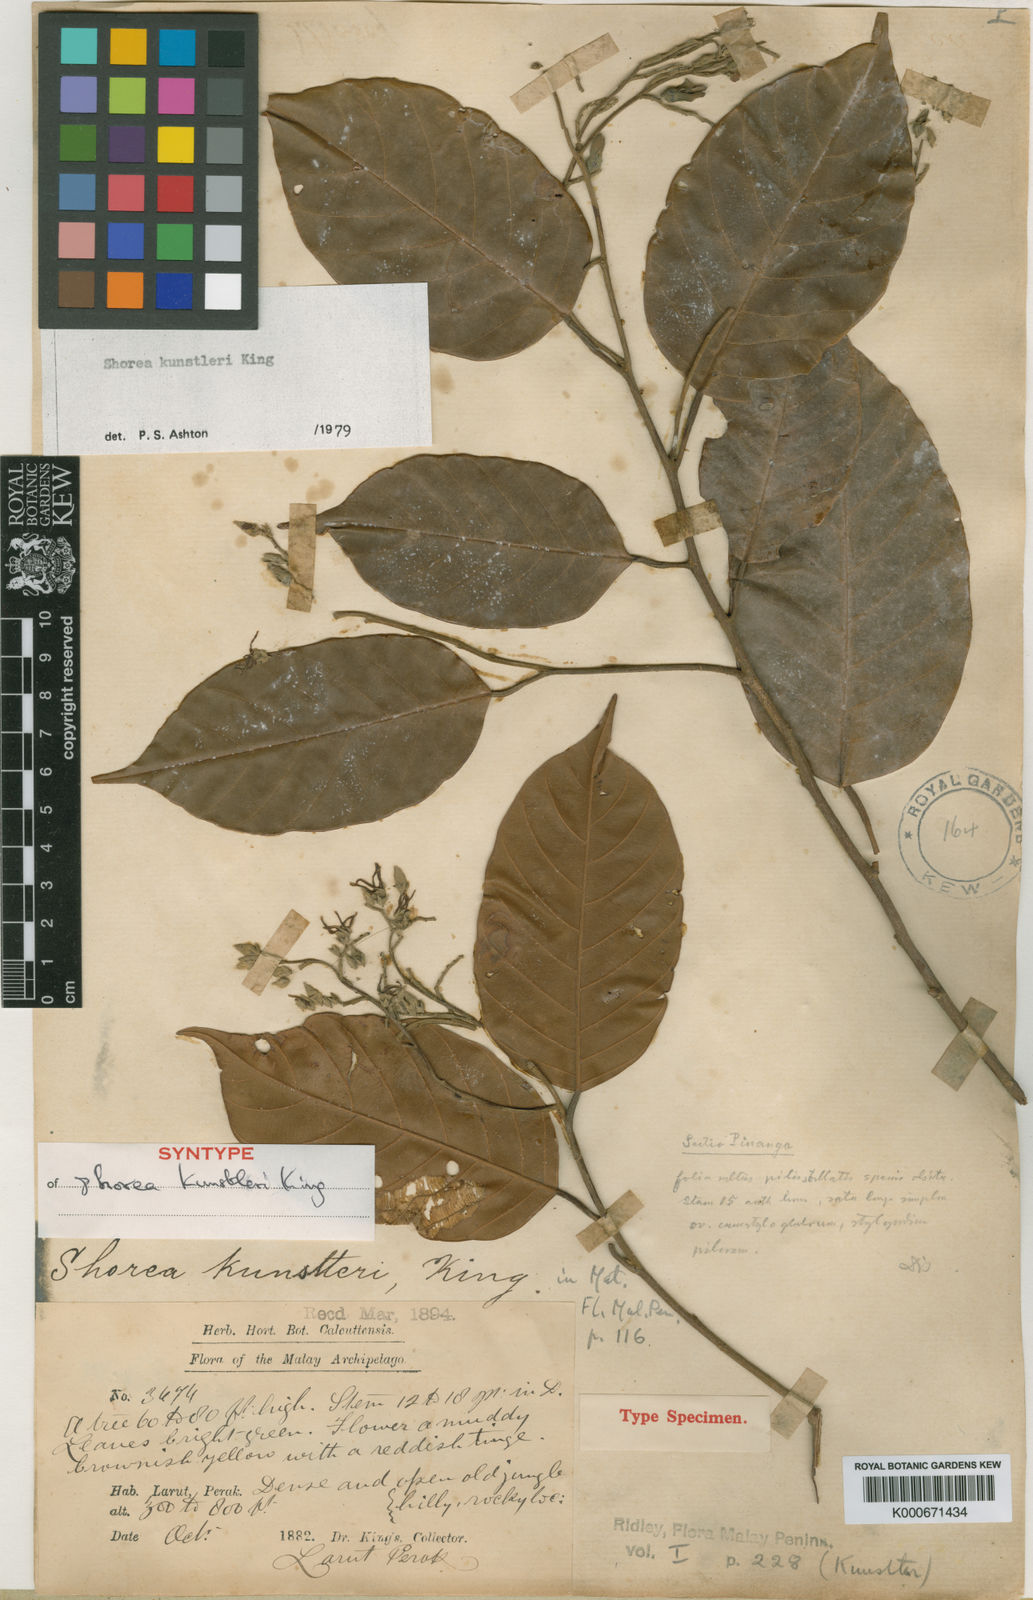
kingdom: Plantae
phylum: Tracheophyta
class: Magnoliopsida
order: Malvales
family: Dipterocarpaceae
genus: Shorea
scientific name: Shorea kunstleri
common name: Red balau
